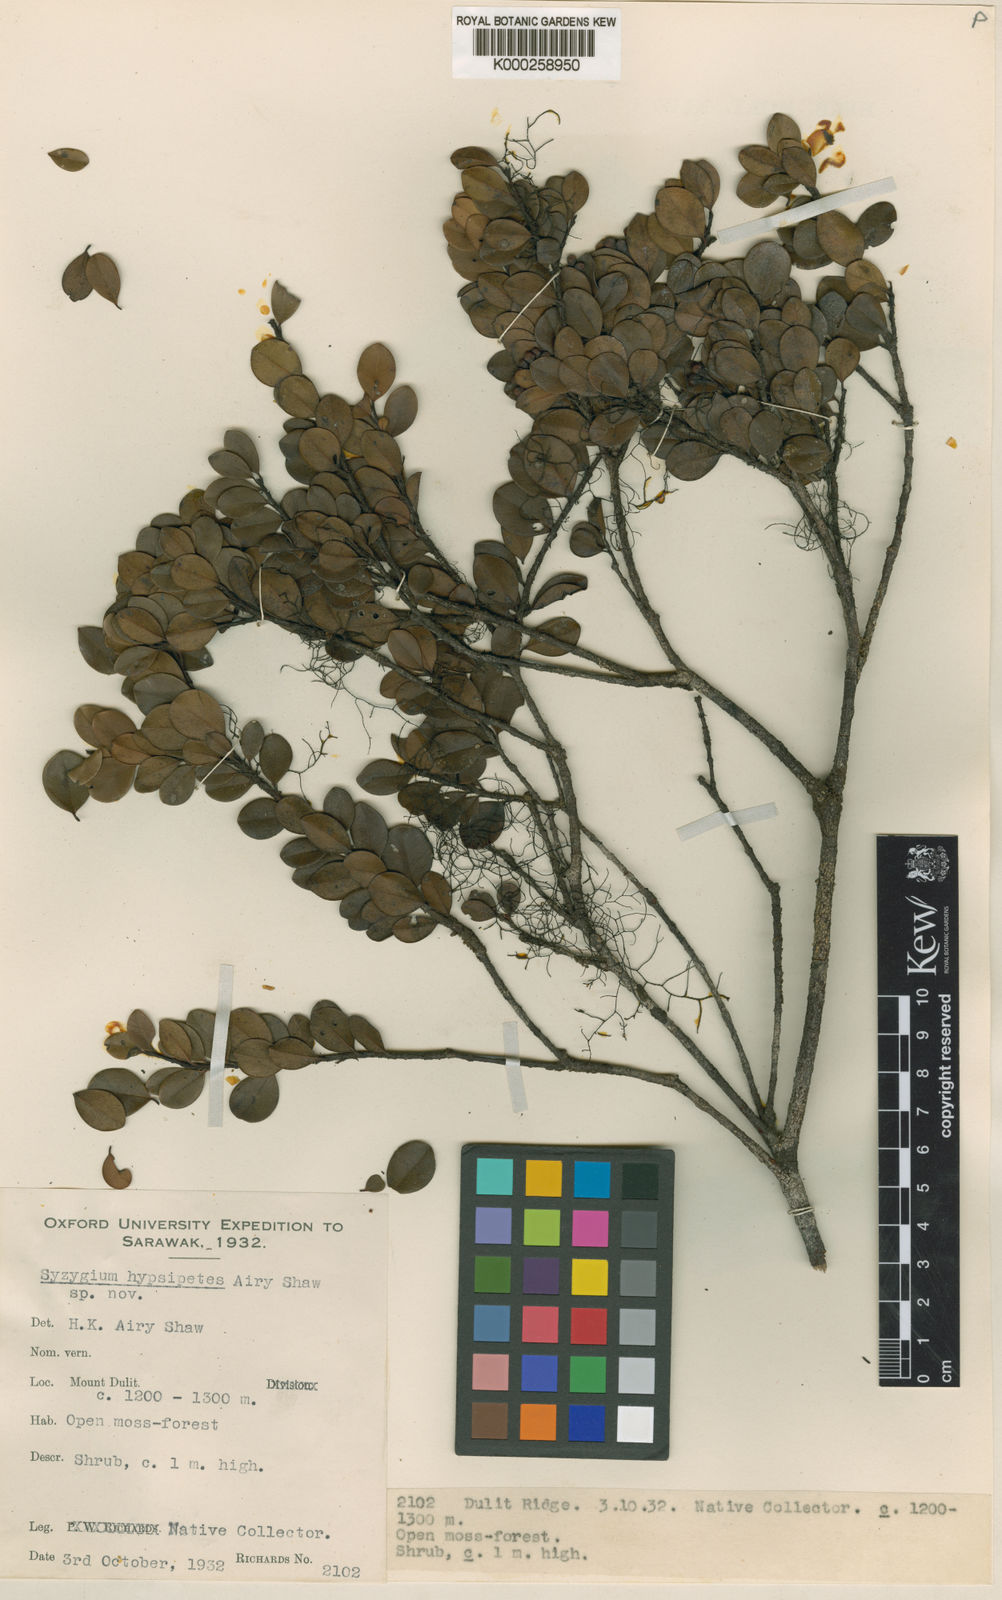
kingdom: Plantae
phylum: Tracheophyta
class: Magnoliopsida
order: Myrtales
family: Myrtaceae
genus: Syzygium
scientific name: Syzygium hypsipetes
